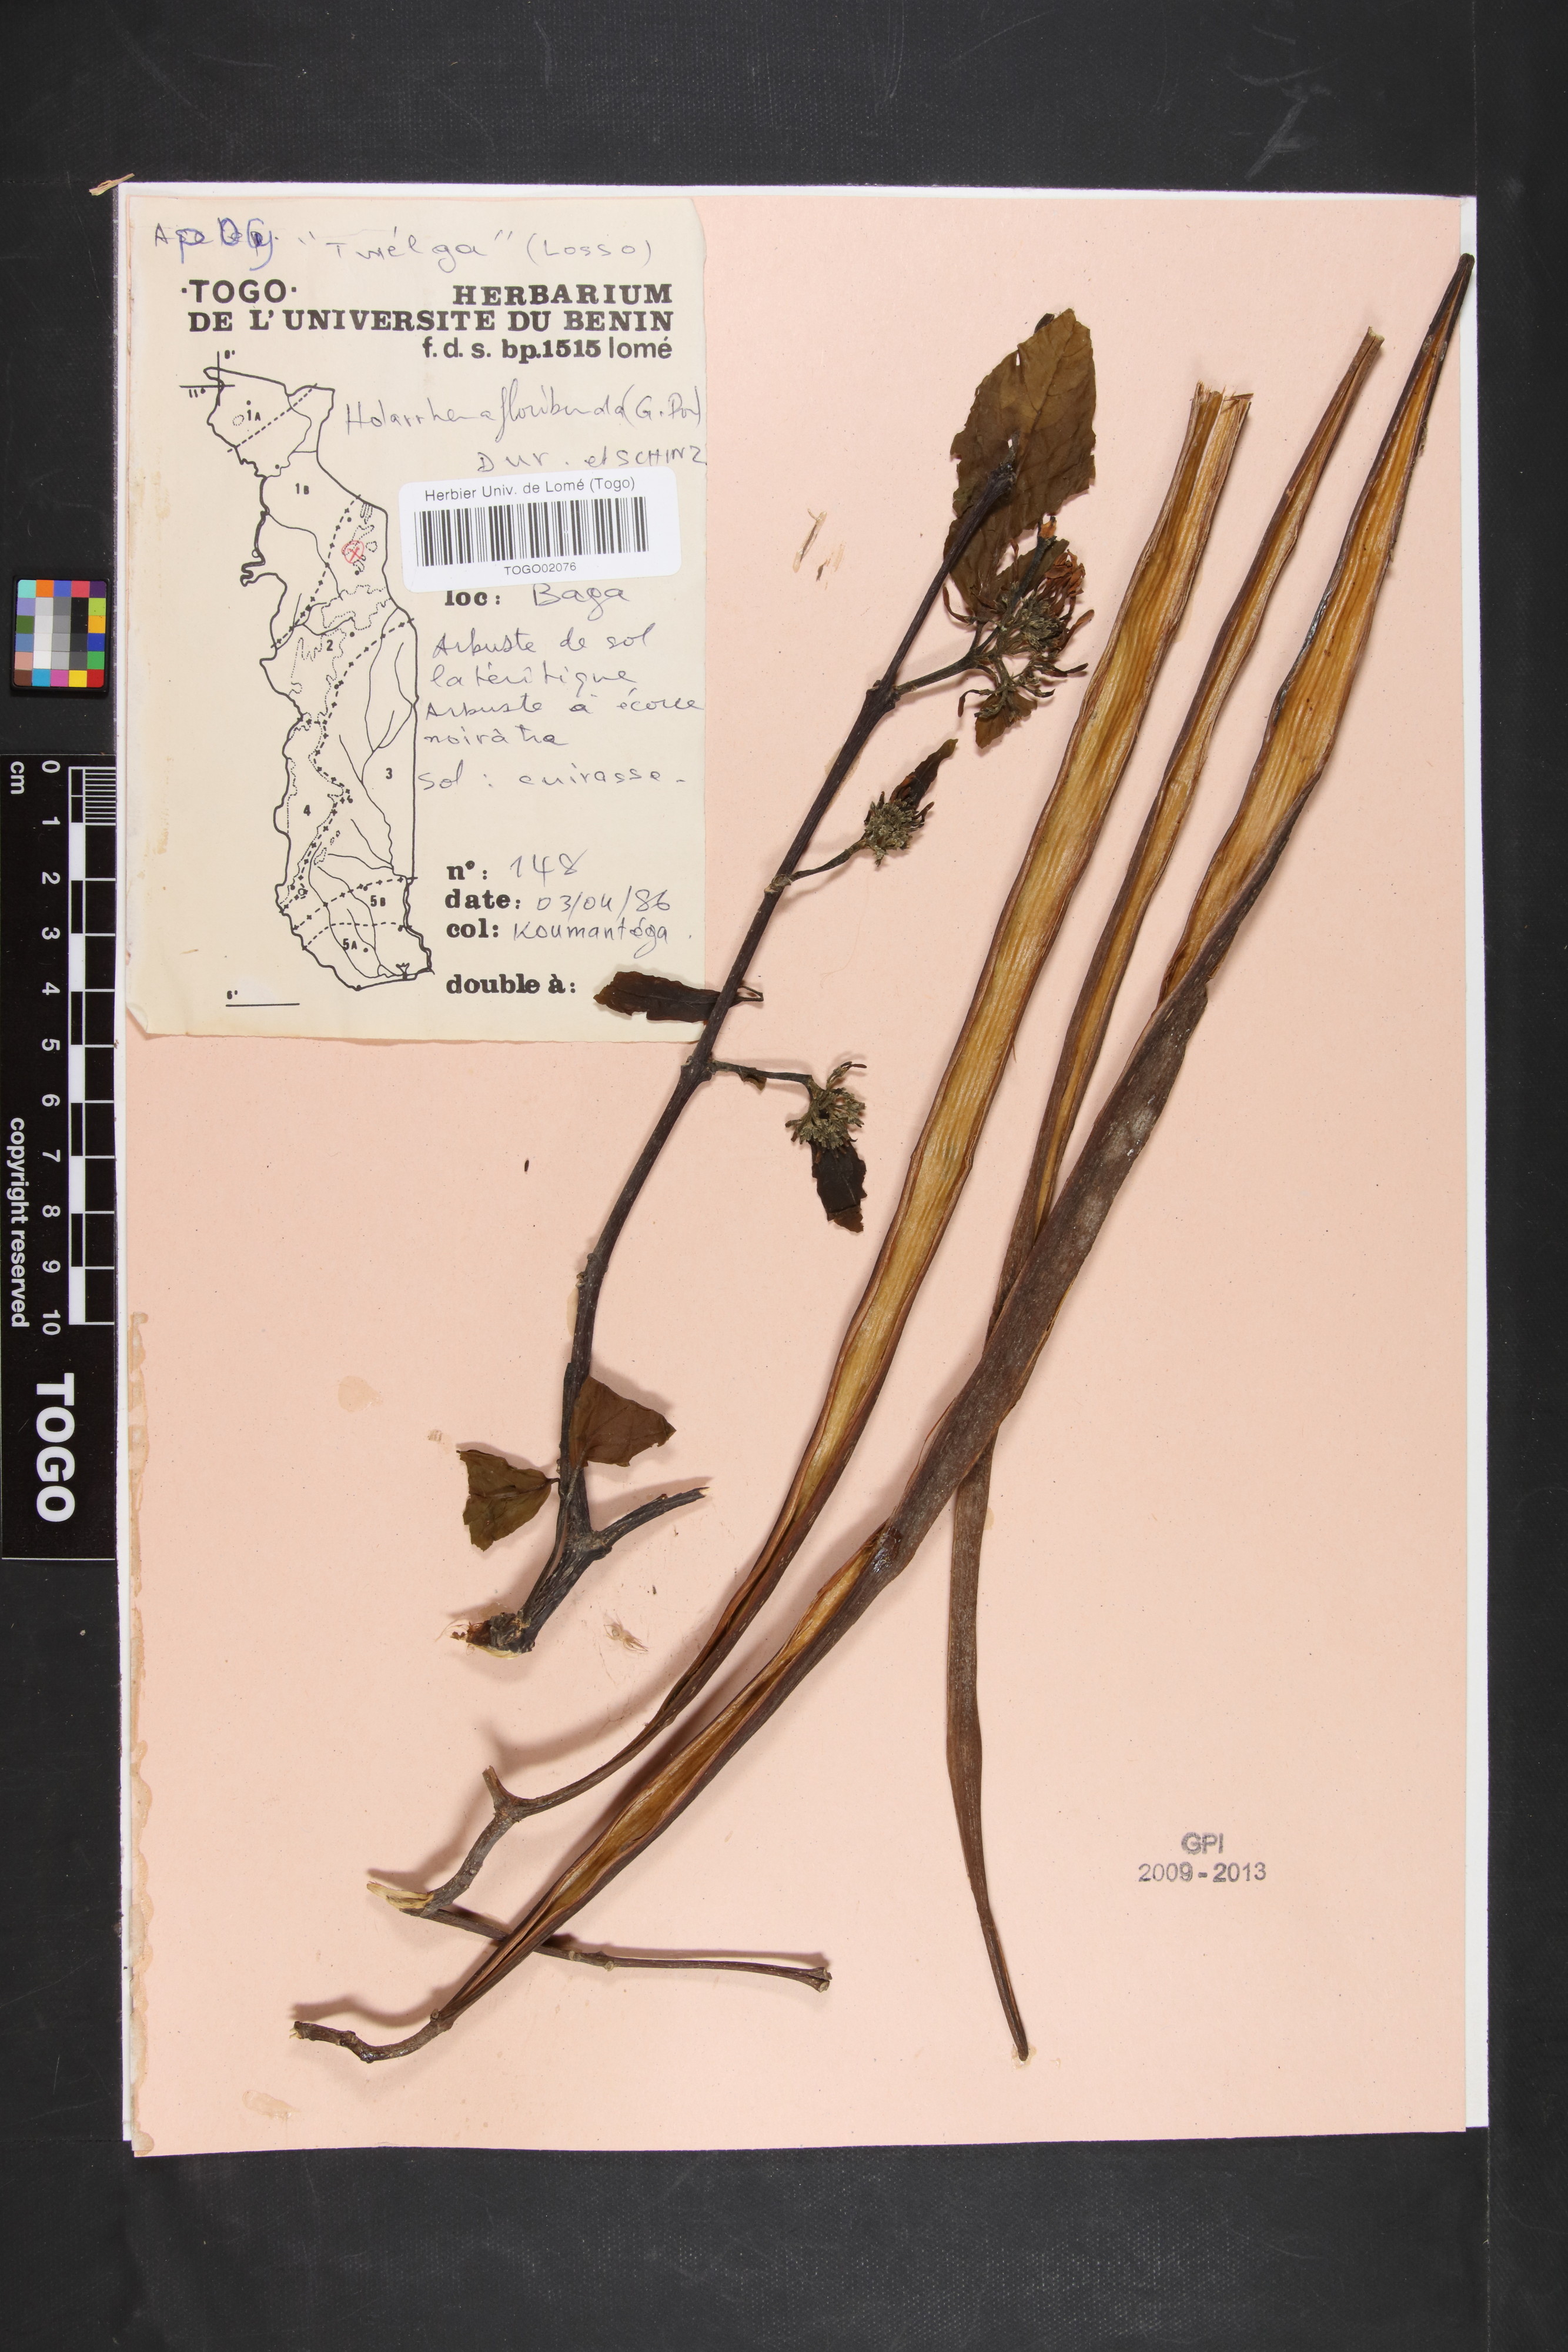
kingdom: Plantae
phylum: Tracheophyta
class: Magnoliopsida
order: Gentianales
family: Apocynaceae
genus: Holarrhena
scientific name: Holarrhena floribunda
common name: Kurchibark
